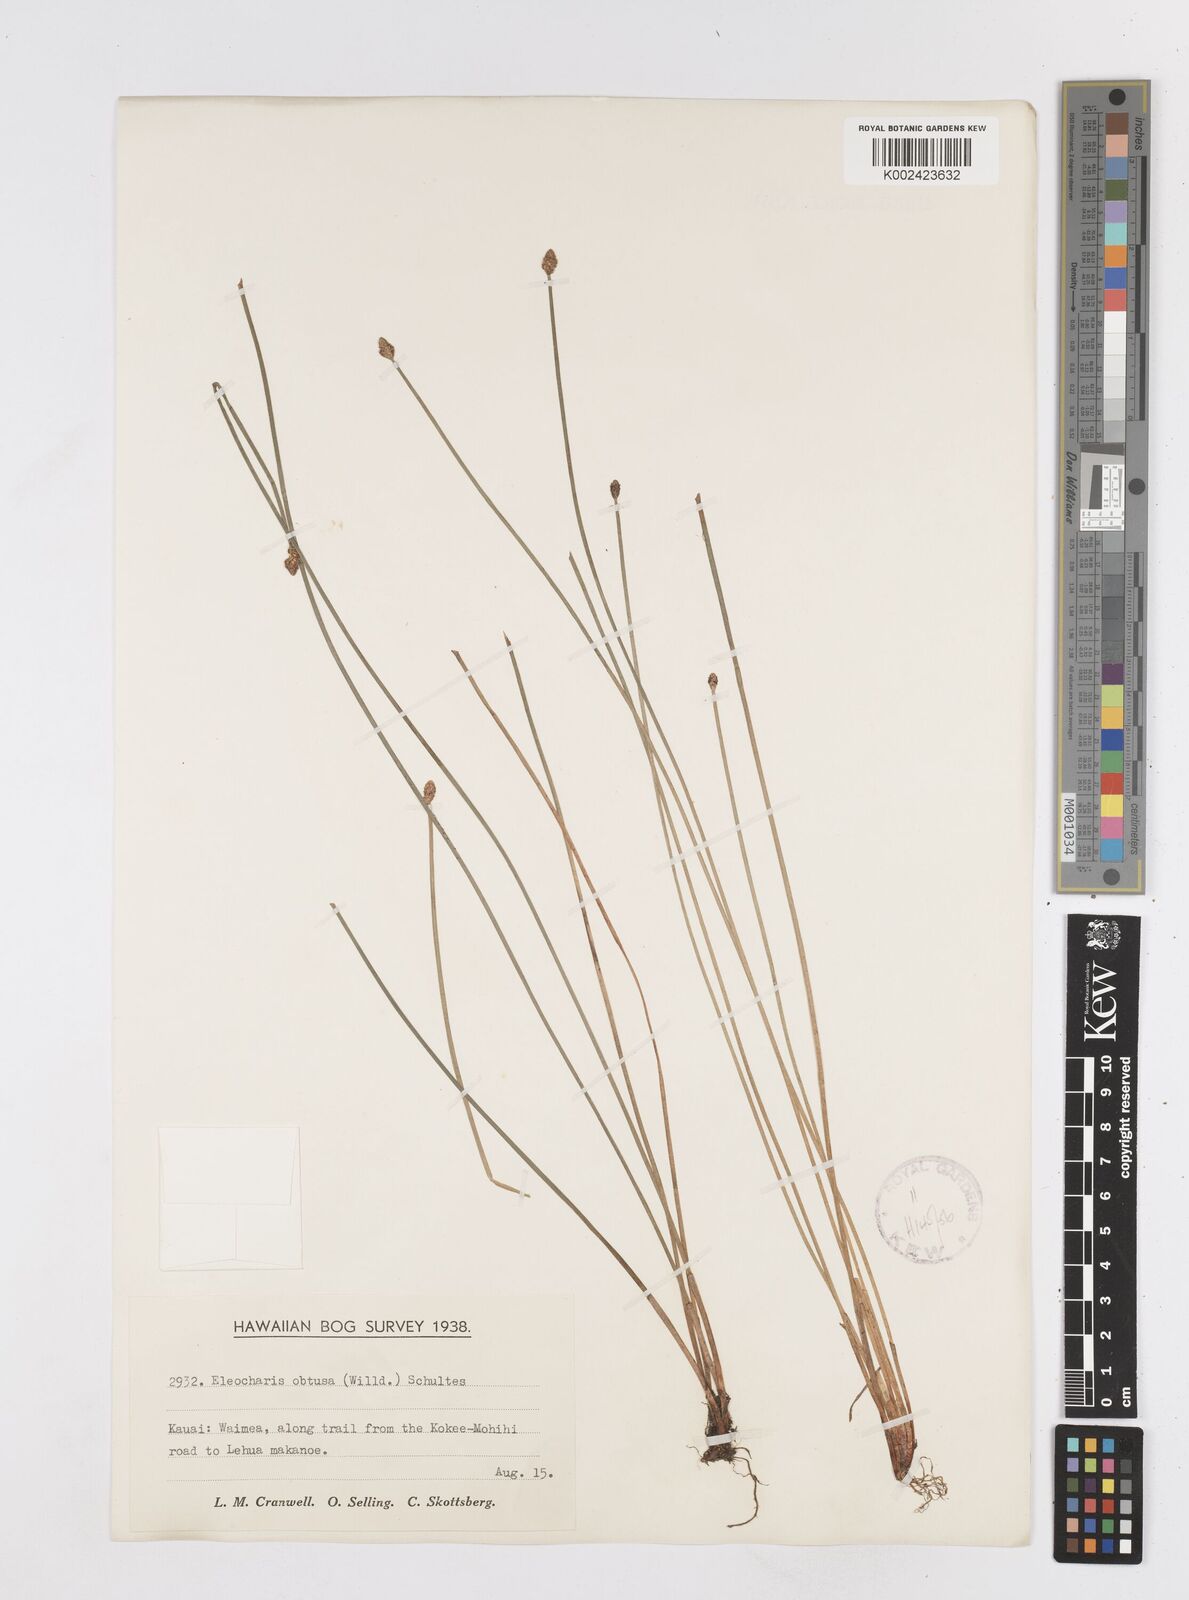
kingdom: Plantae
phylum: Tracheophyta
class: Liliopsida
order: Poales
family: Cyperaceae
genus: Eleocharis
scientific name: Eleocharis obtusa
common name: Blunt spikerush
